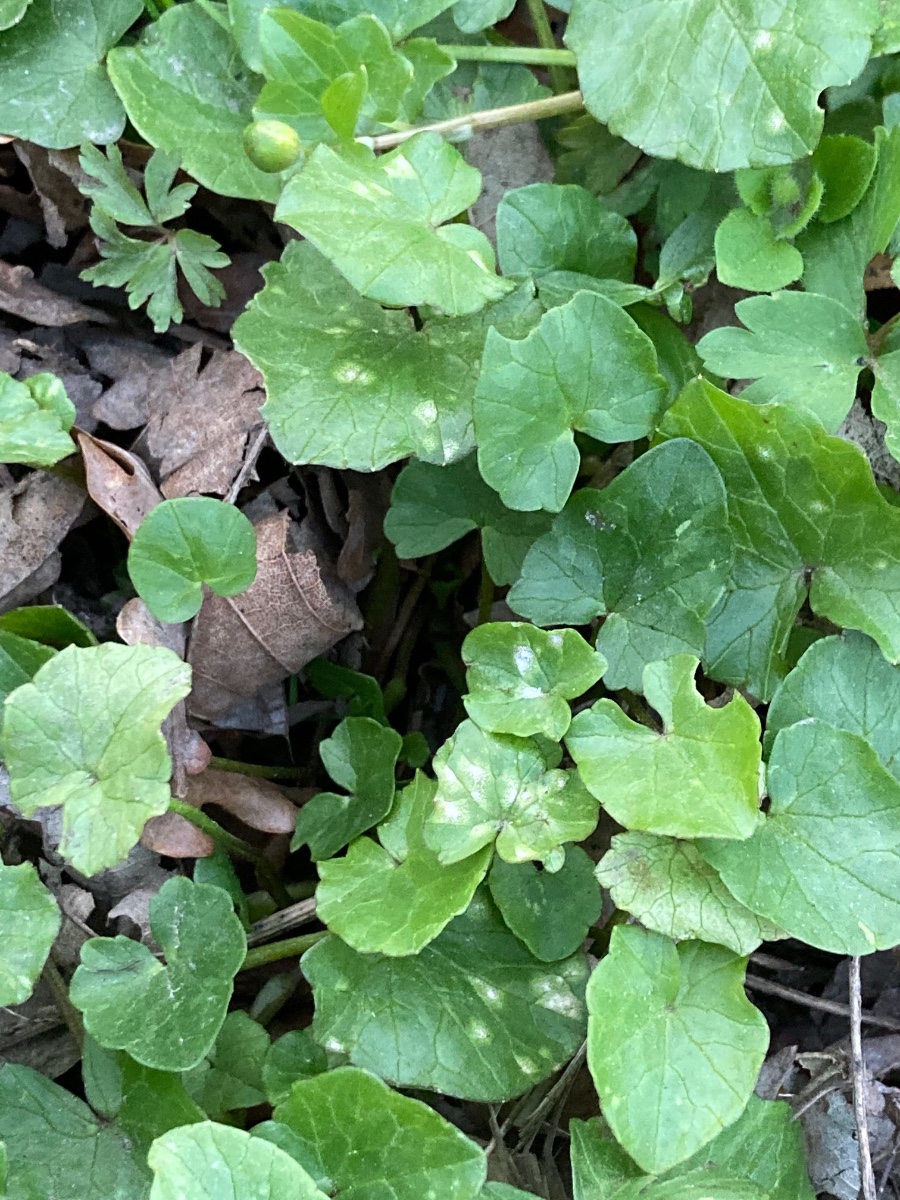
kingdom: Fungi
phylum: Basidiomycota
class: Exobasidiomycetes
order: Entylomatales
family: Entylomataceae
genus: Entyloma
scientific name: Entyloma ficariae
